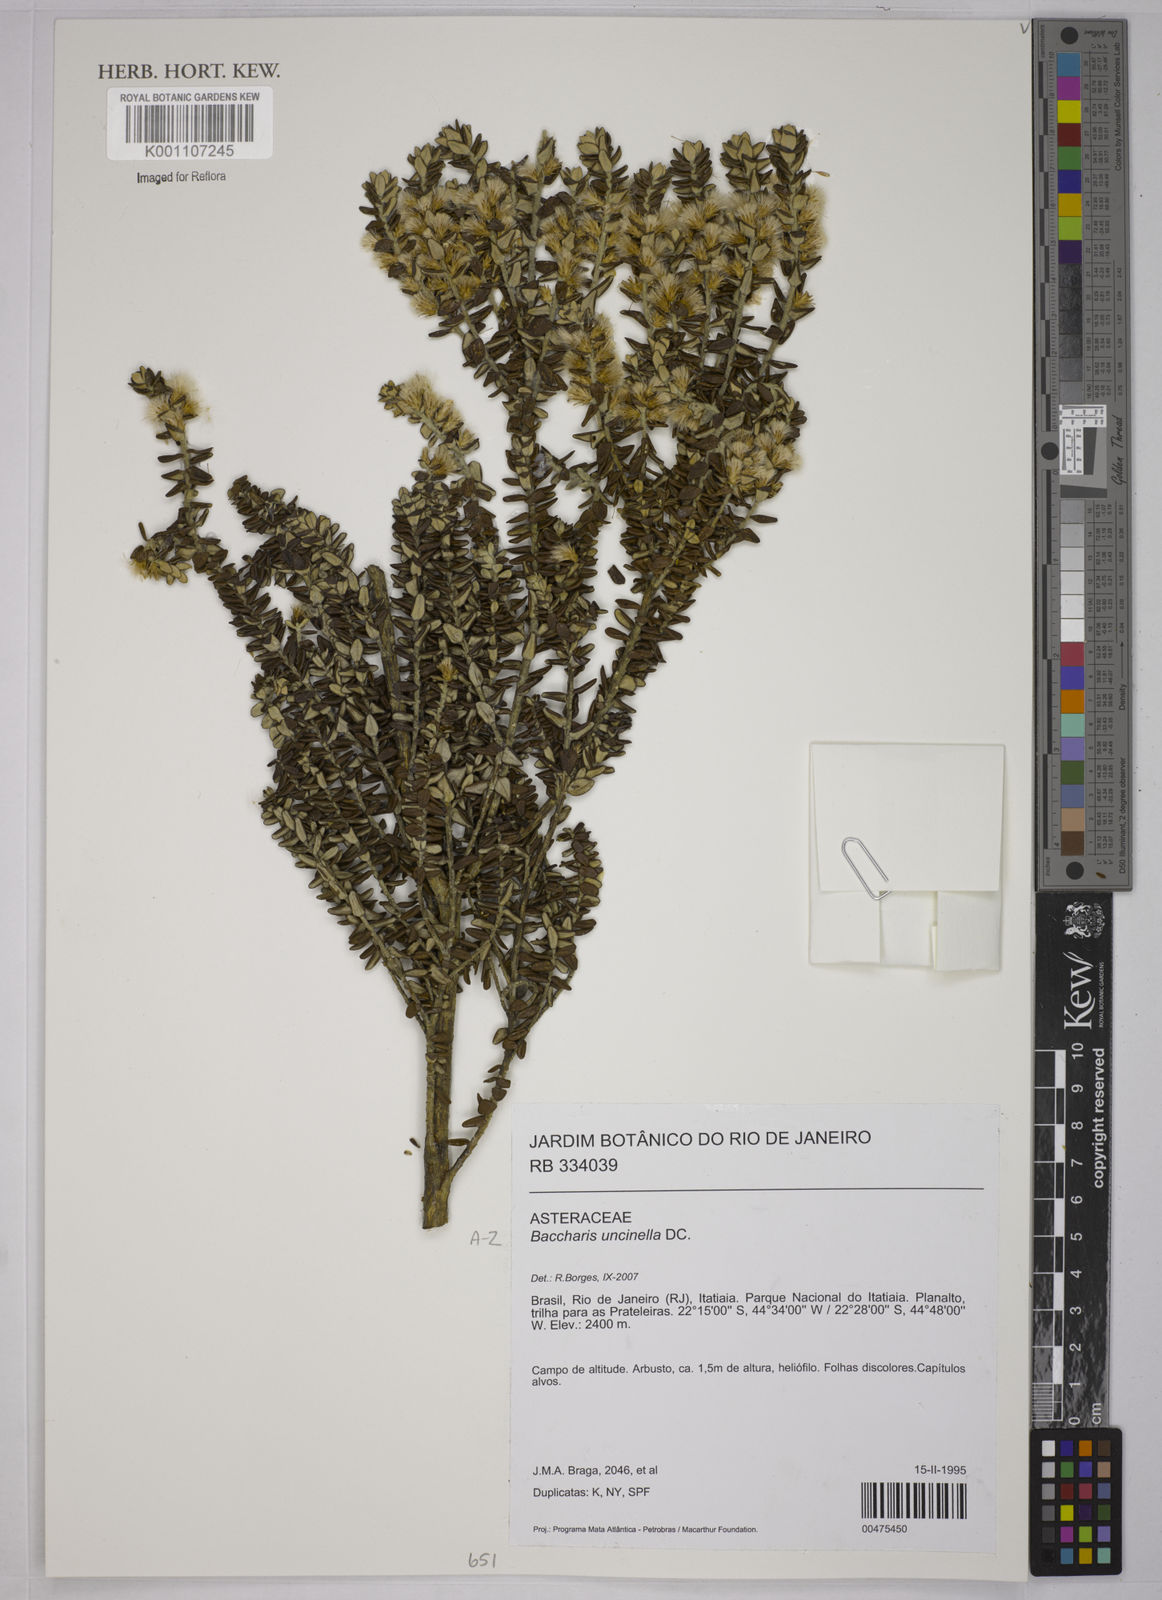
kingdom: Plantae
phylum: Tracheophyta
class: Magnoliopsida
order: Asterales
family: Asteraceae
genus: Baccharis
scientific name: Baccharis uncinella
